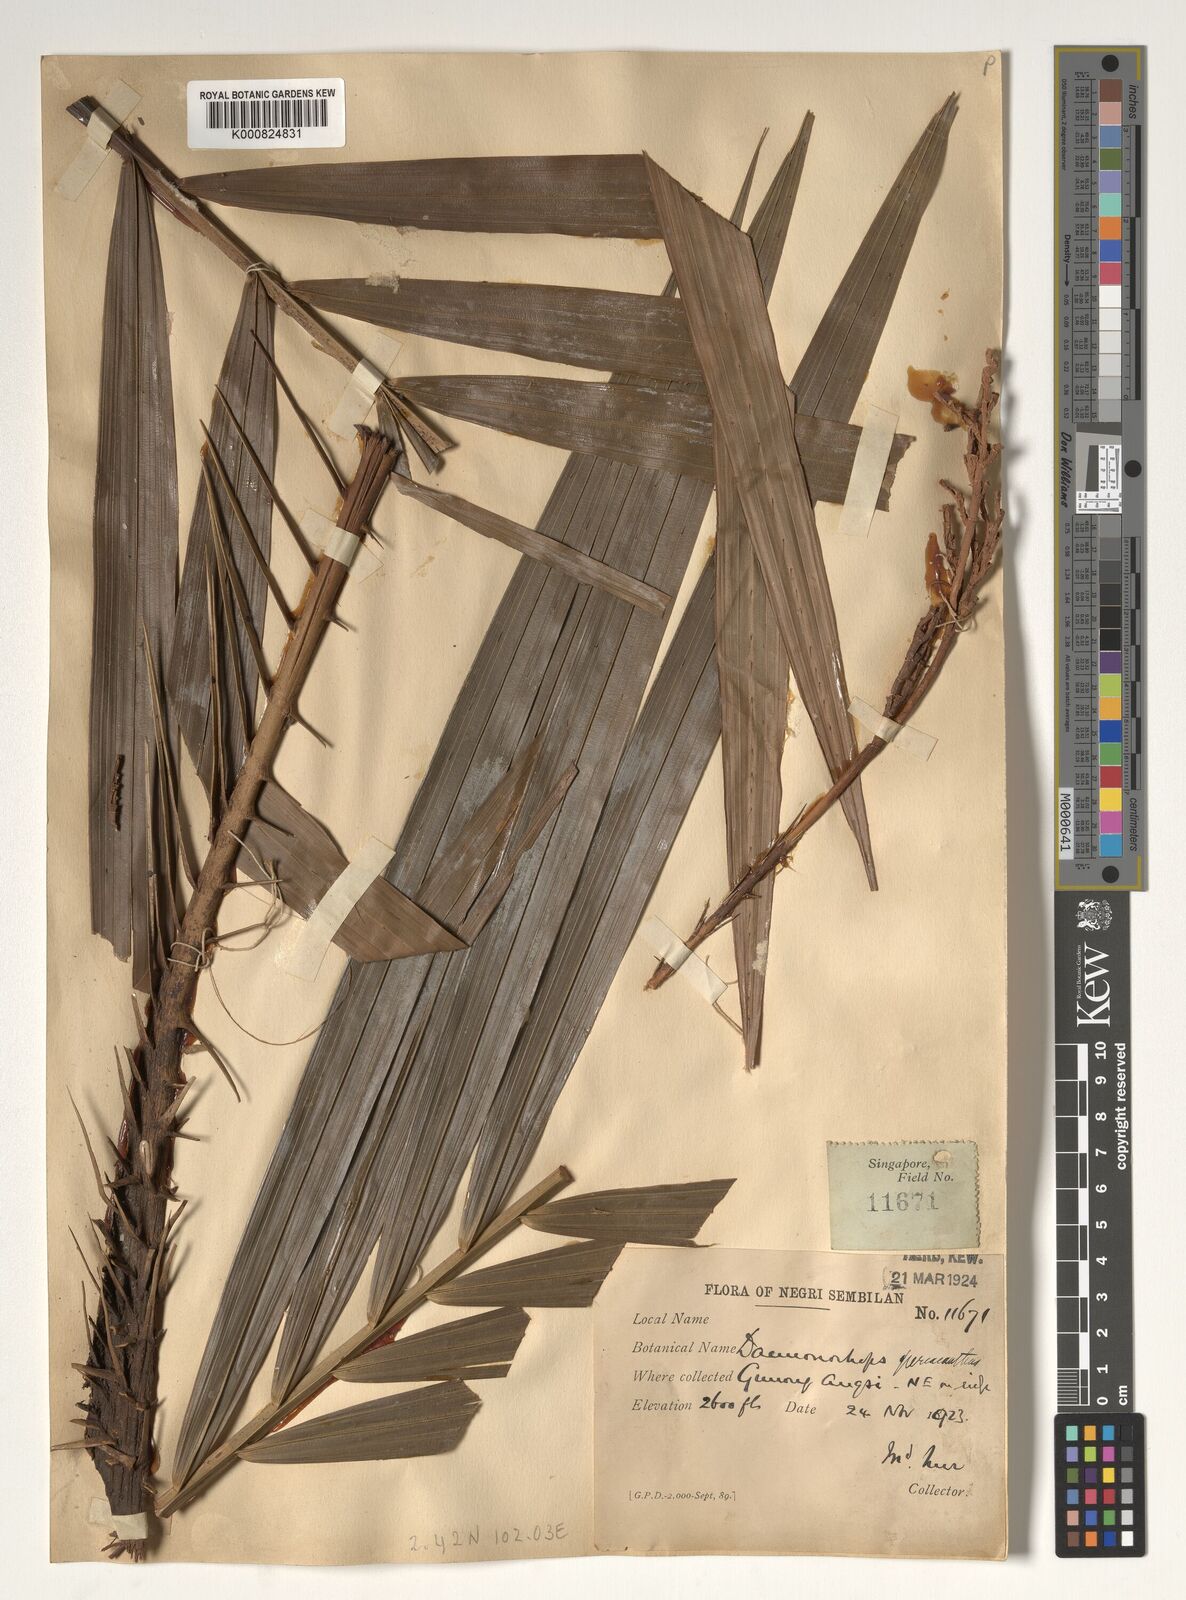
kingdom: Plantae
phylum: Tracheophyta
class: Liliopsida
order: Arecales
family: Arecaceae
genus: Calamus
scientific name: Calamus periacanthus
